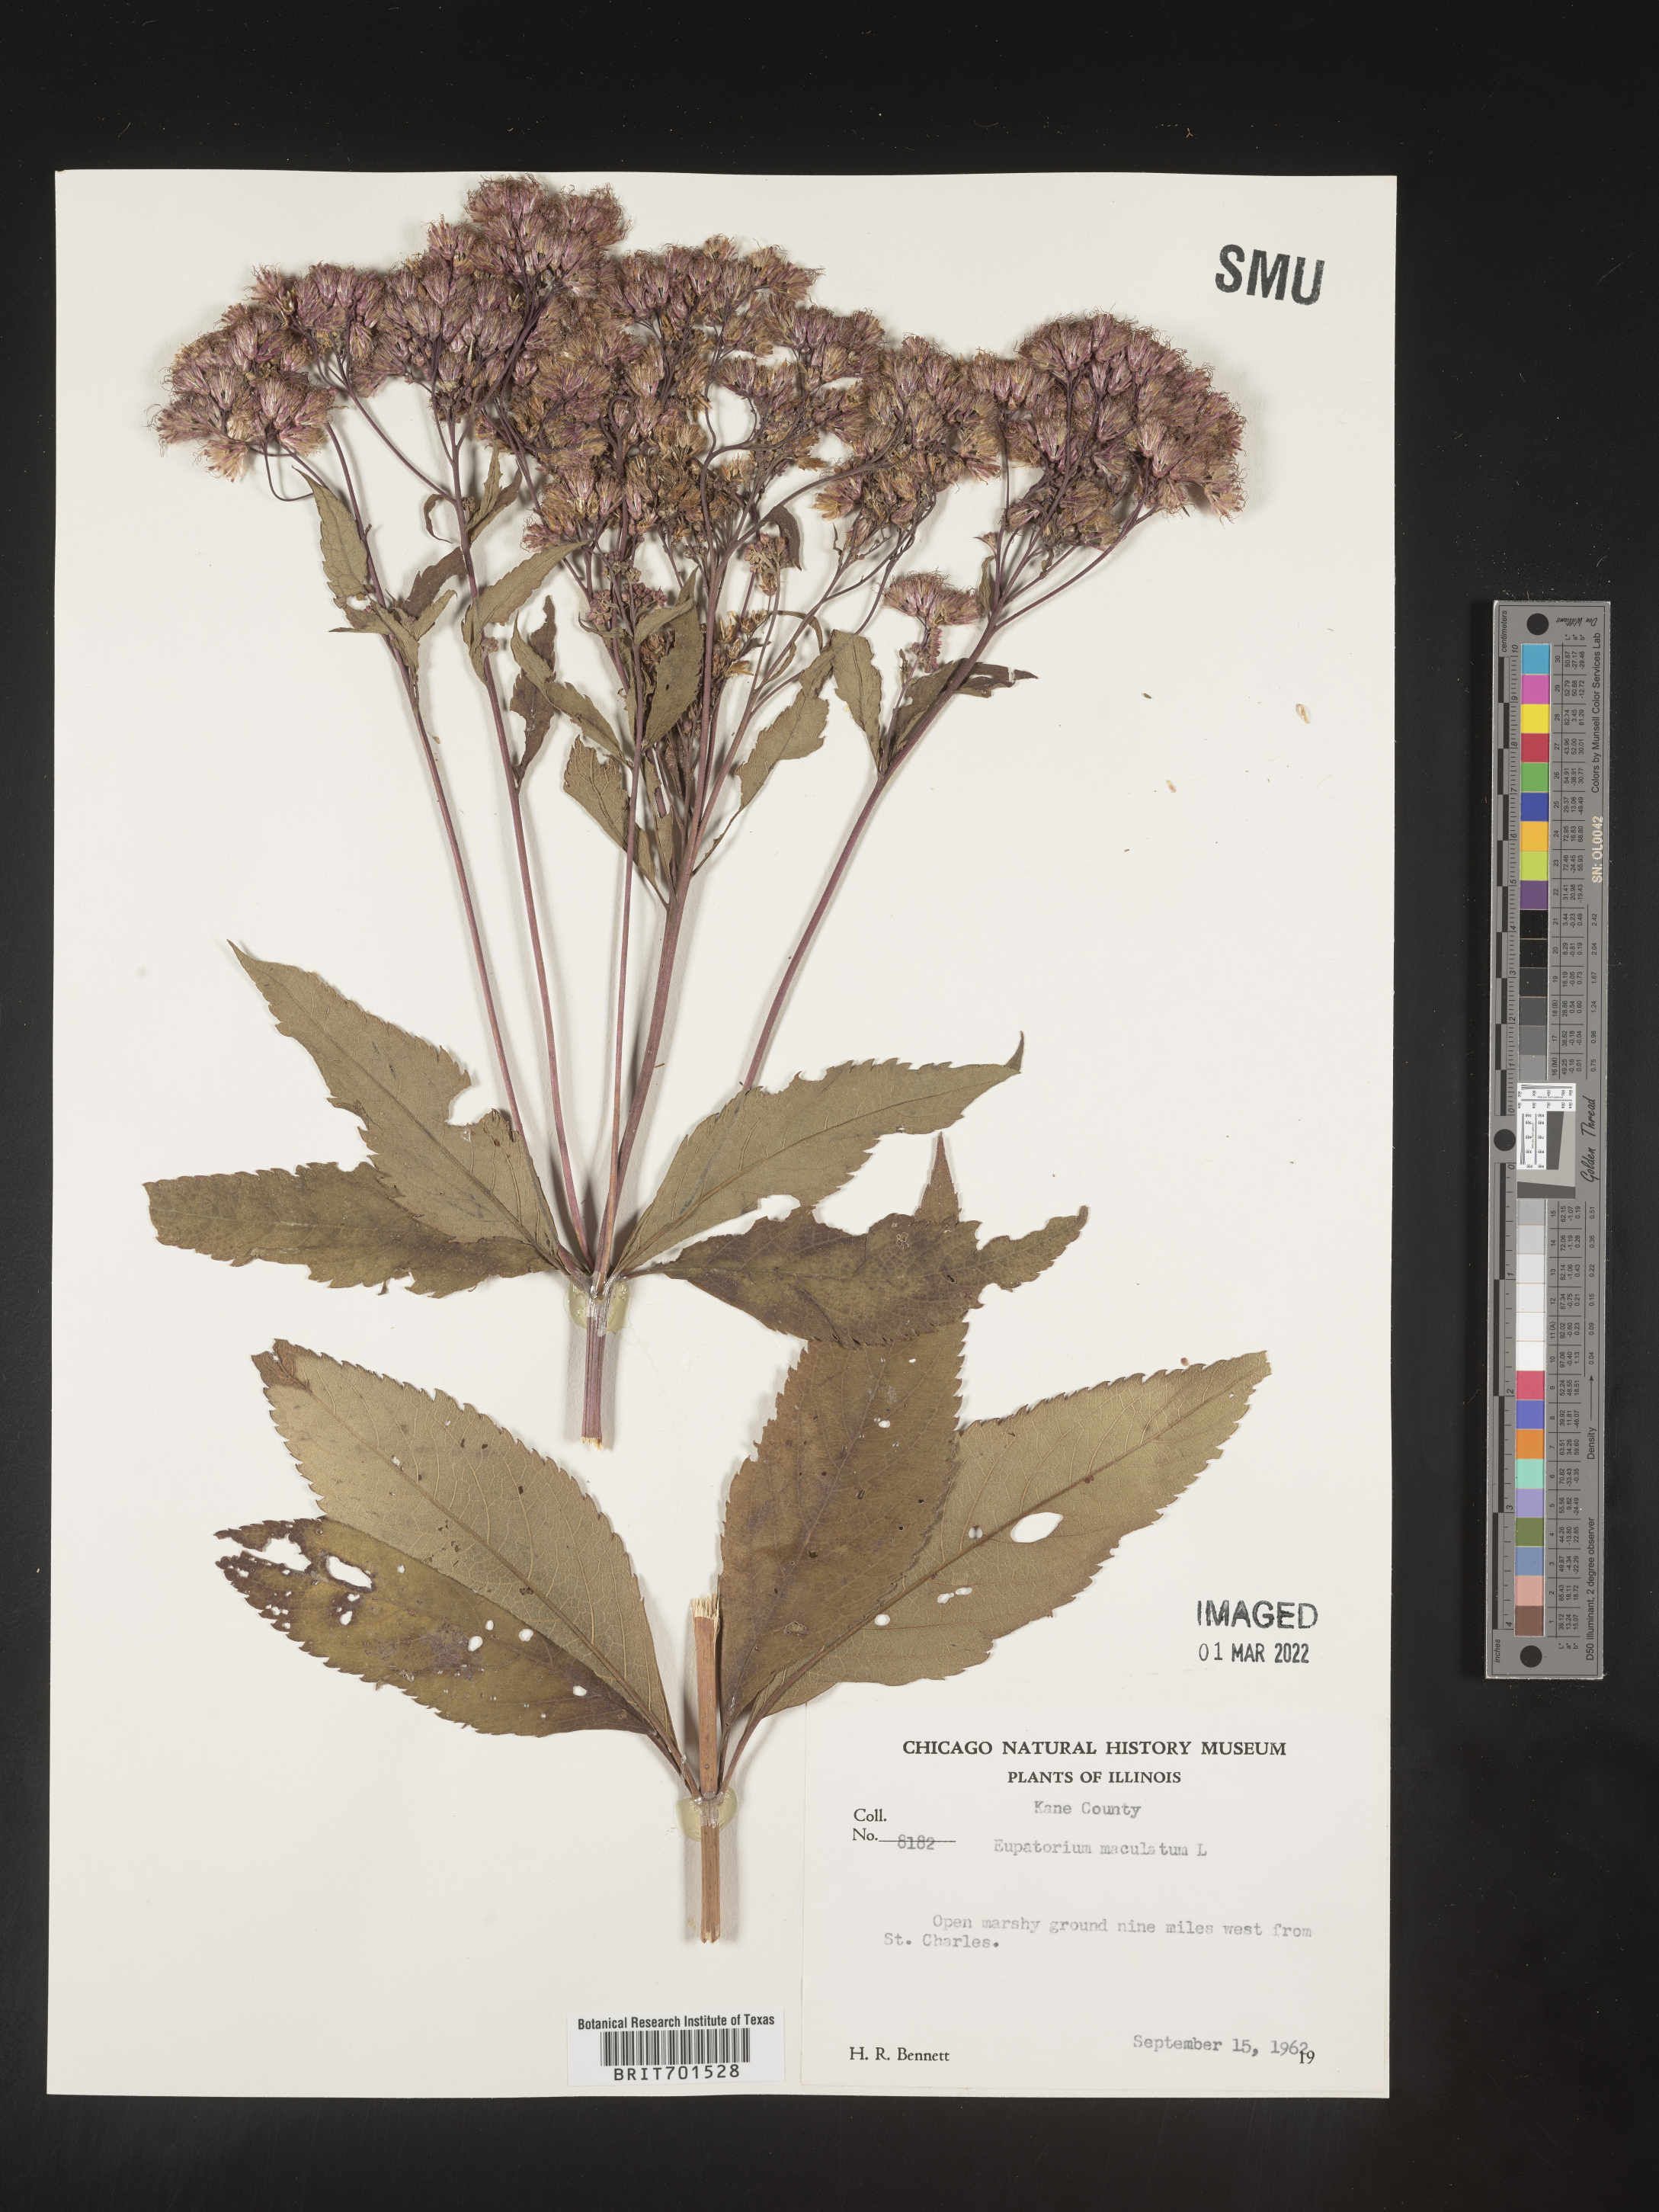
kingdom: Plantae
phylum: Tracheophyta
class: Magnoliopsida
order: Asterales
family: Asteraceae
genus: Eutrochium
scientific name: Eutrochium maculatum
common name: Spotted joe pye weed
